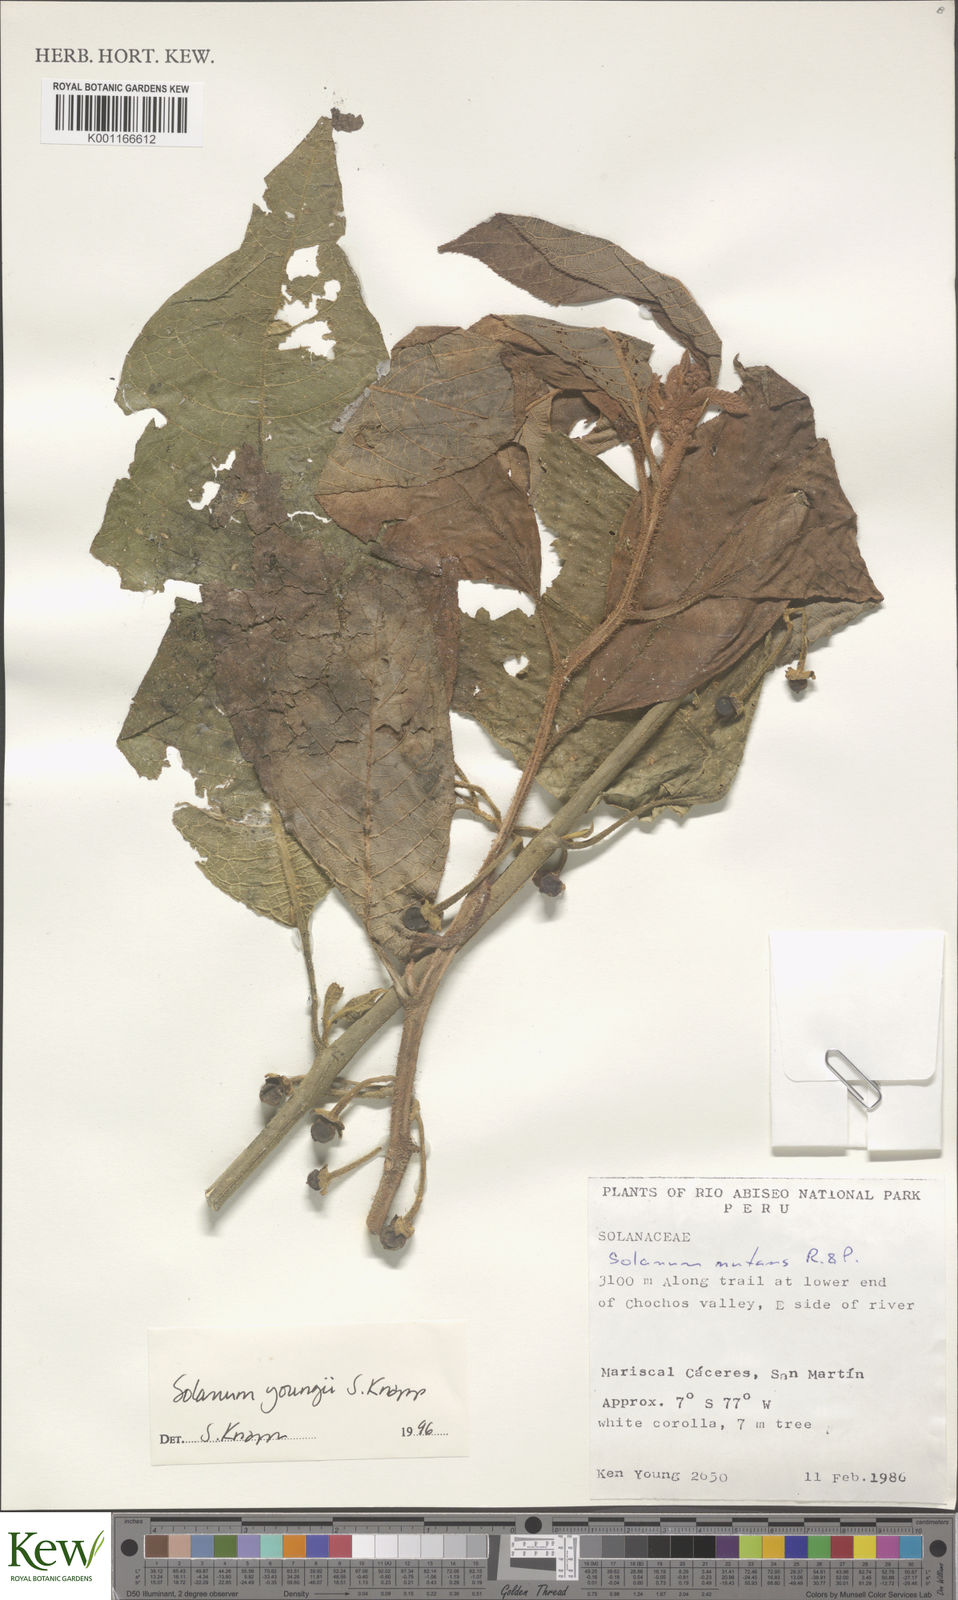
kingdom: Plantae
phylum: Tracheophyta
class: Magnoliopsida
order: Solanales
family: Solanaceae
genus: Solanum
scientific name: Solanum youngii
